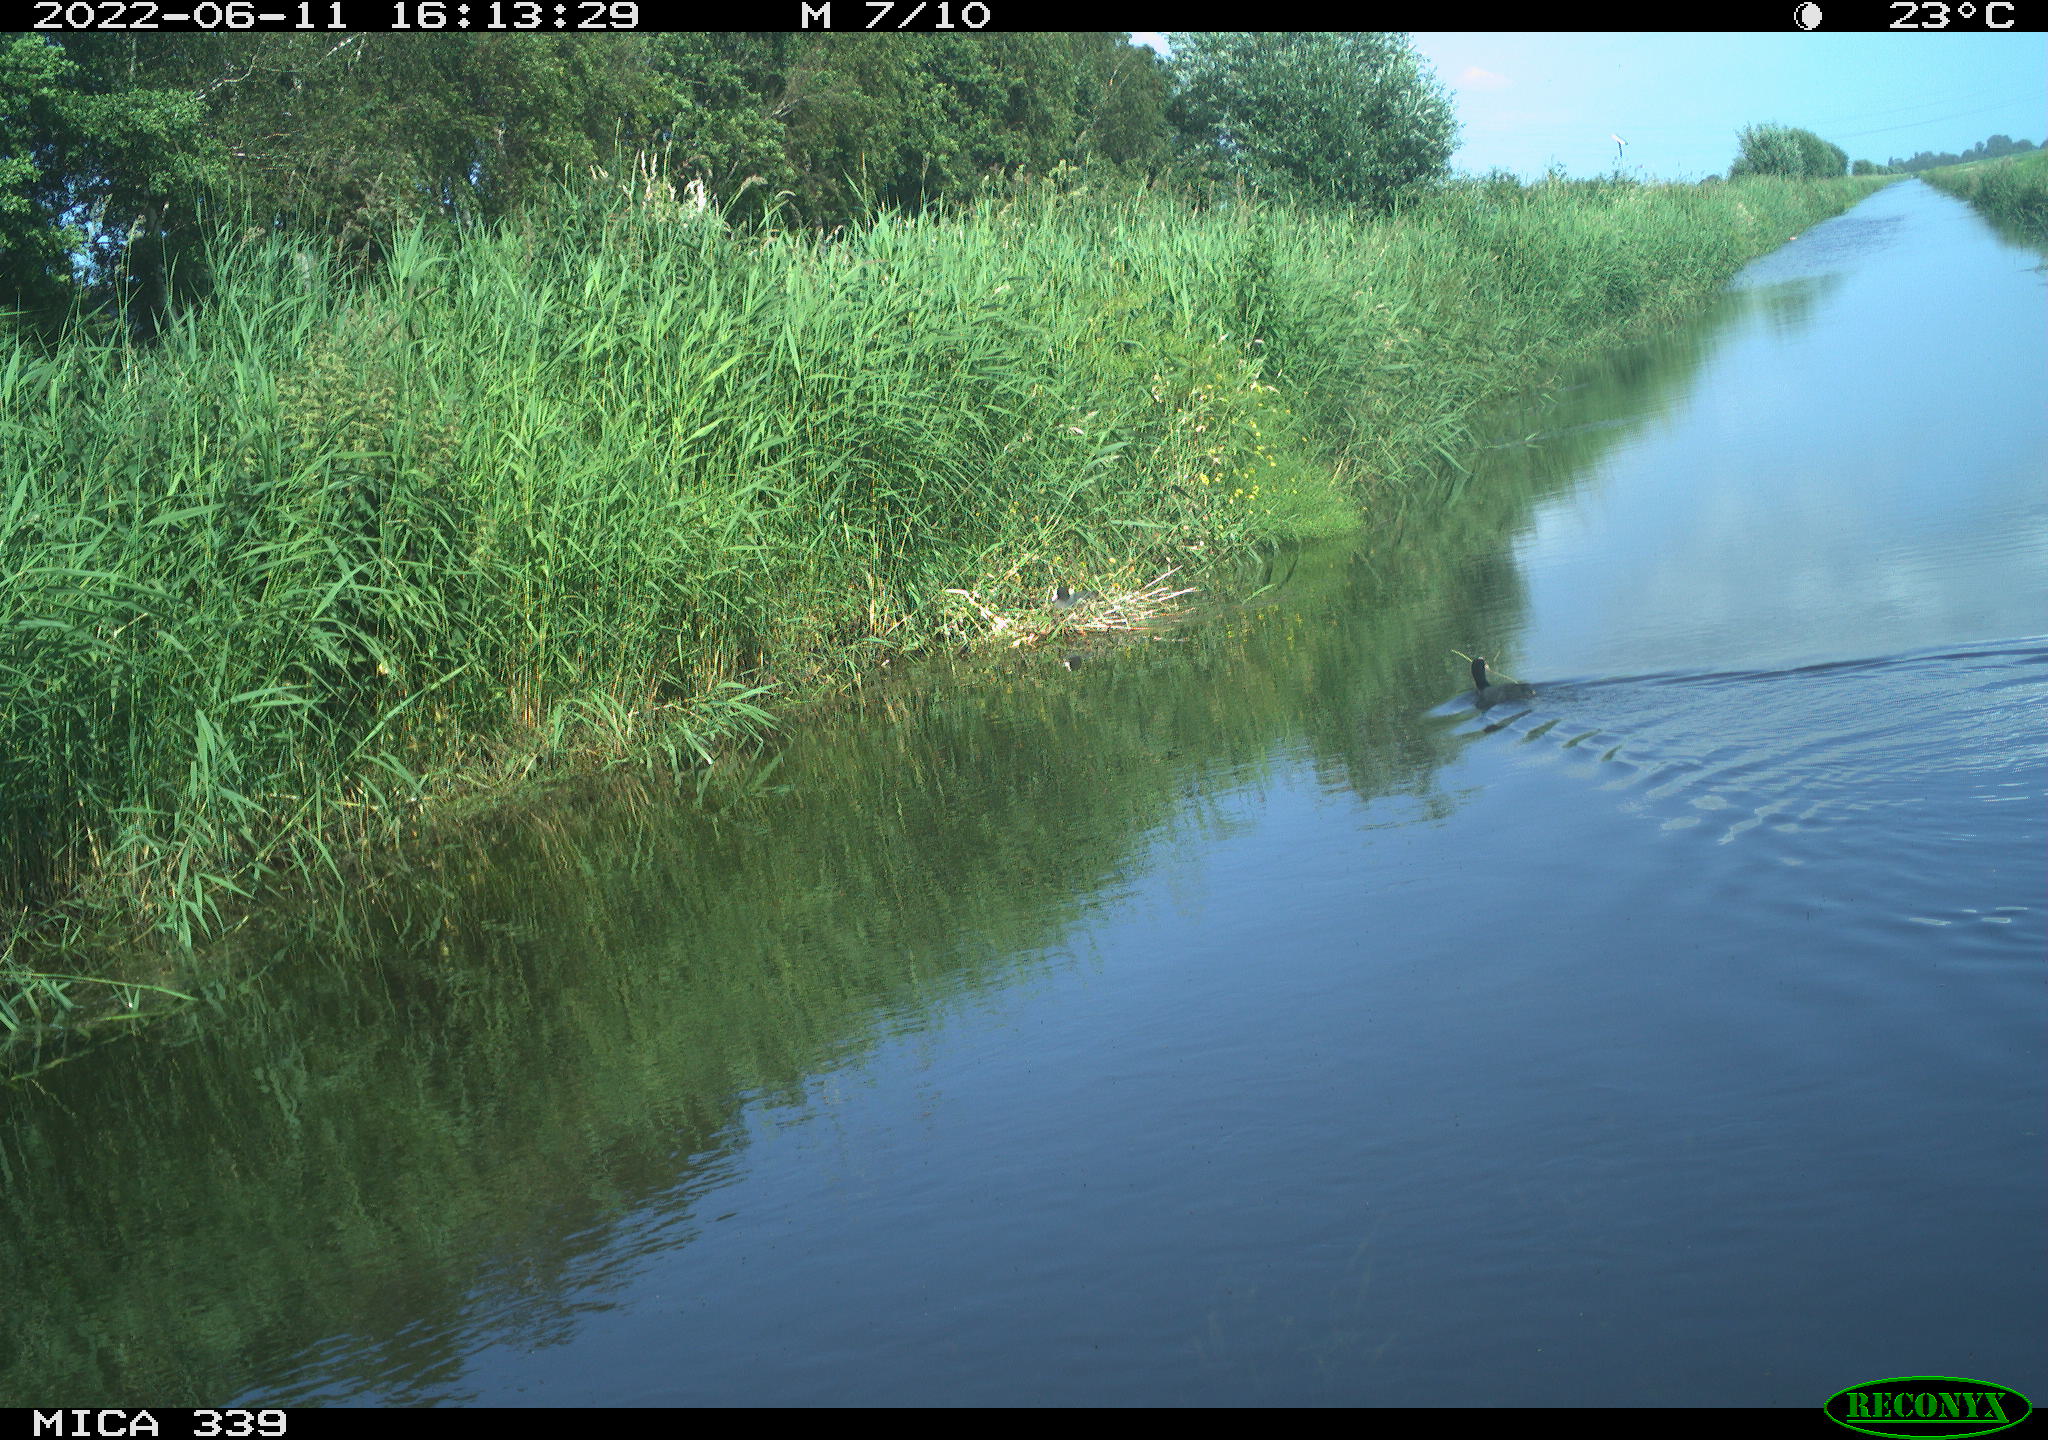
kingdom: Animalia
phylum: Chordata
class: Aves
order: Gruiformes
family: Rallidae
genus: Fulica
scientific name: Fulica atra
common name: Eurasian coot
